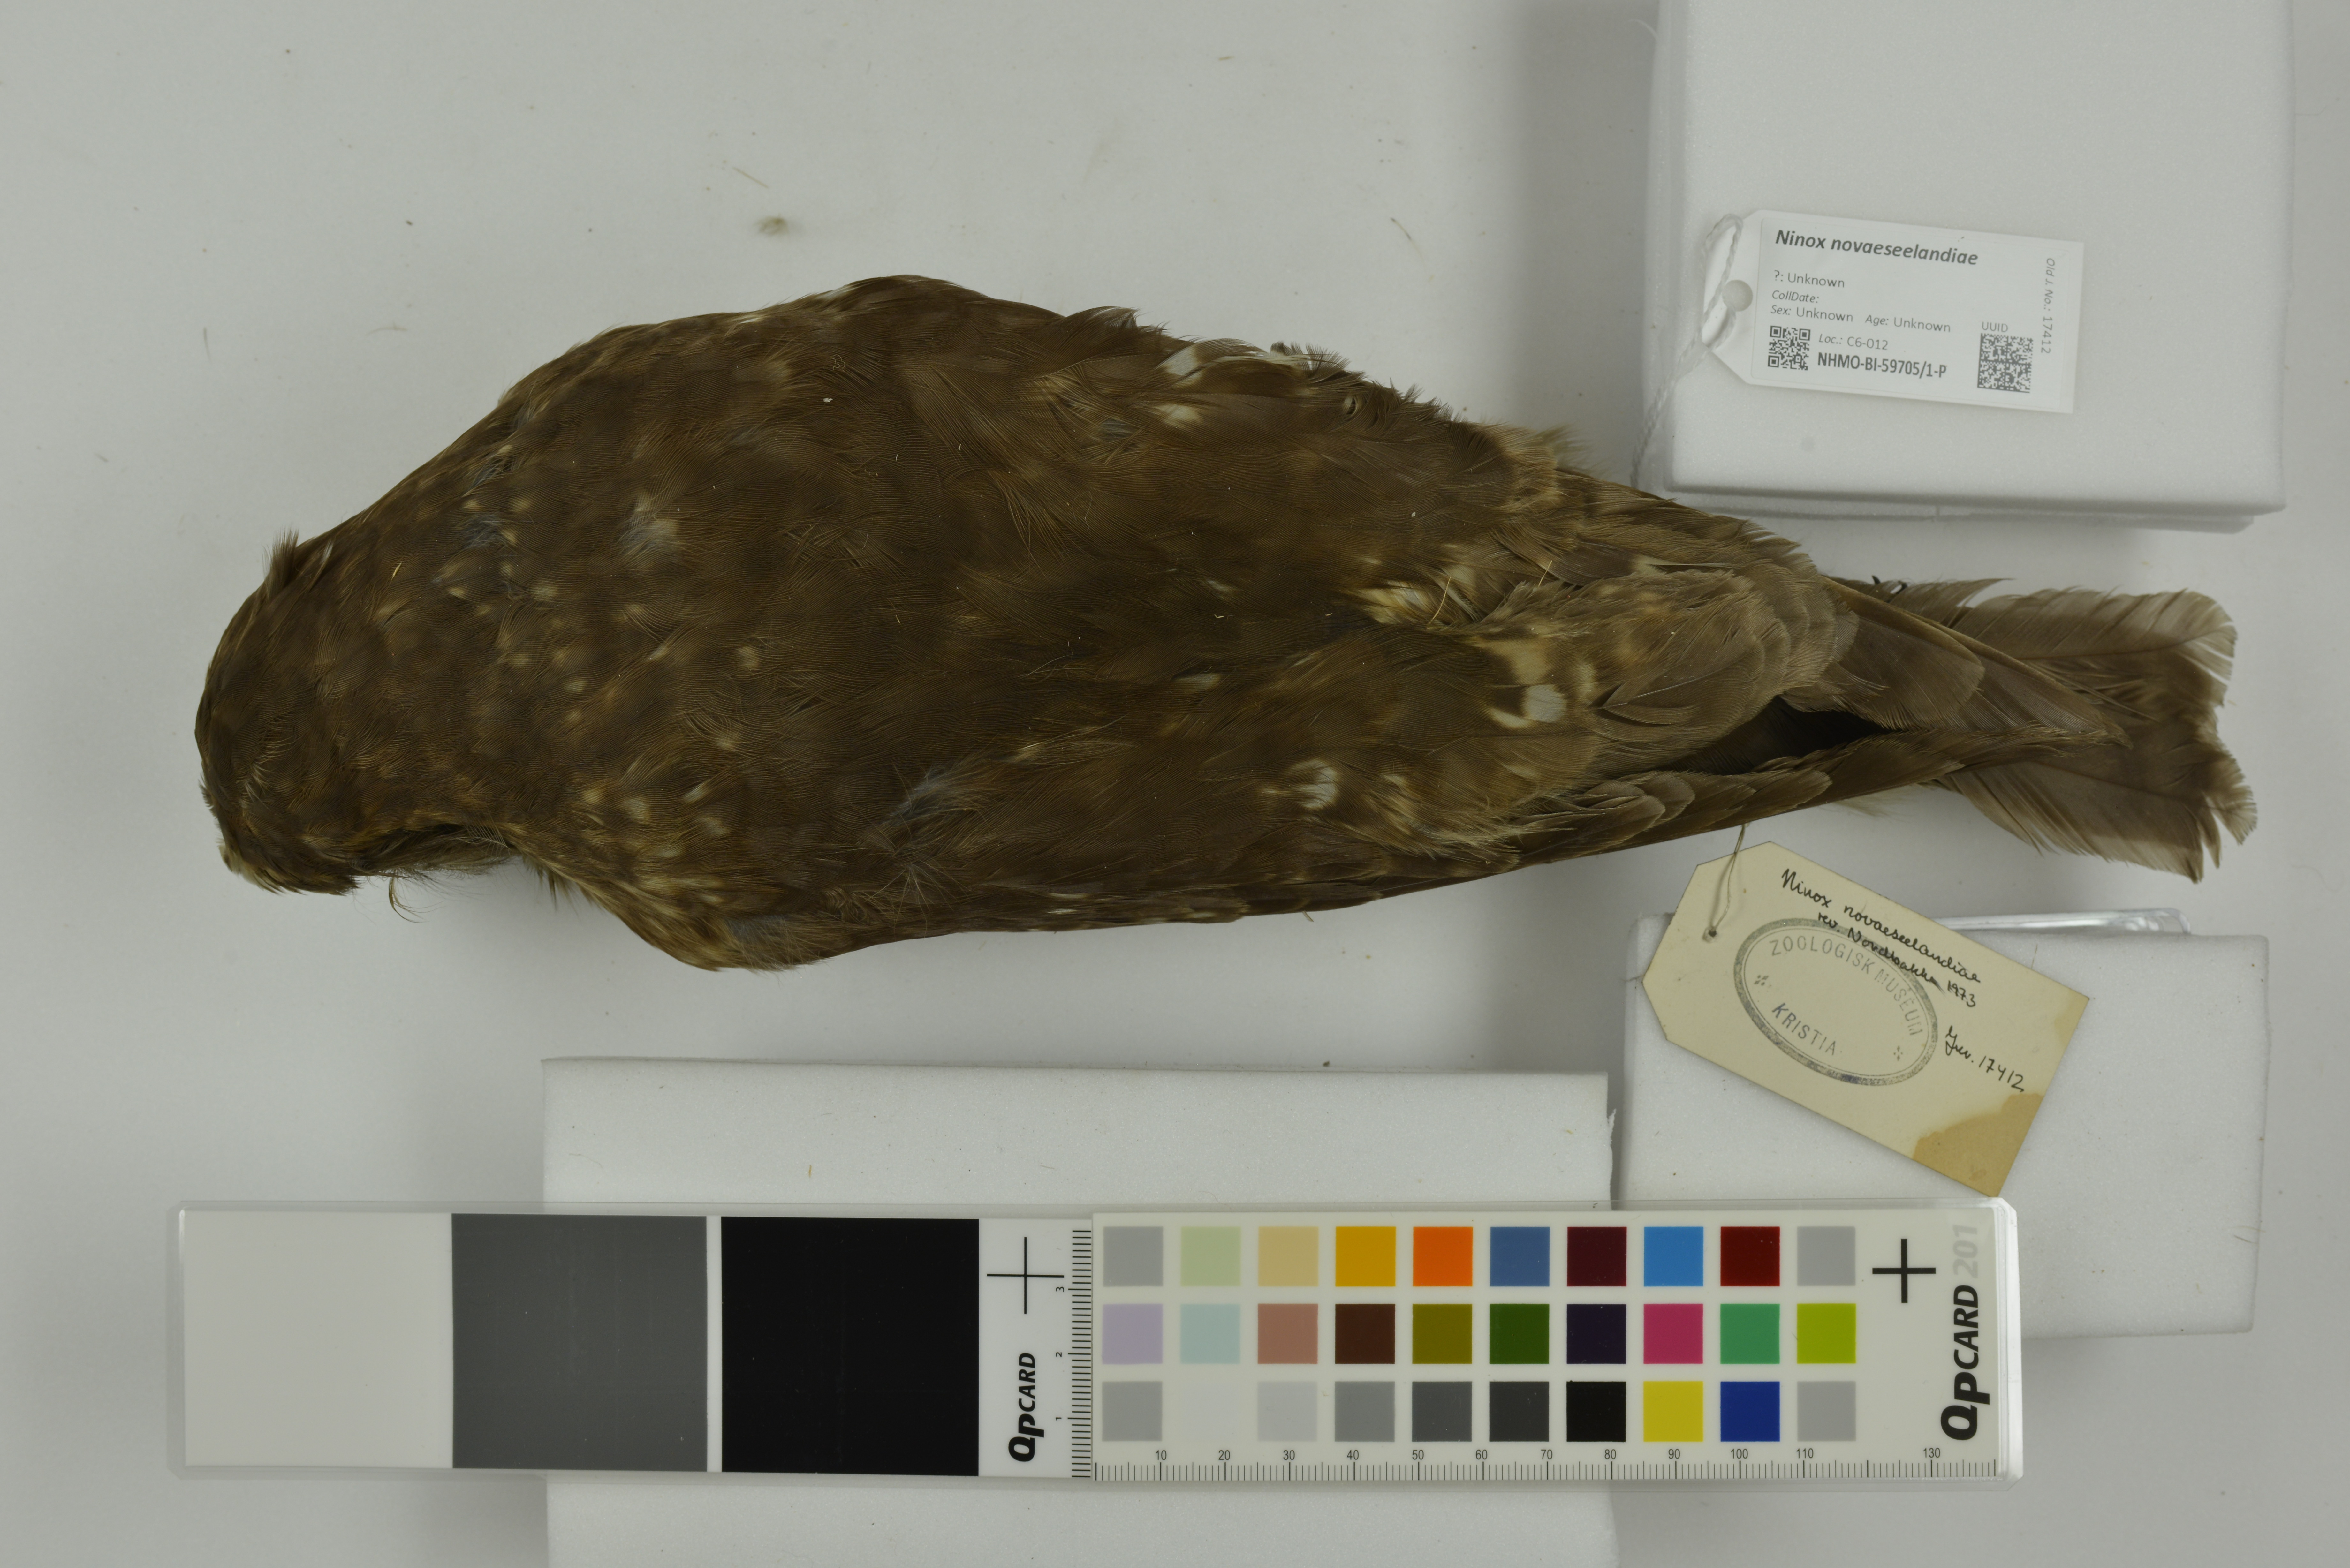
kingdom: Animalia
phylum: Chordata
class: Aves
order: Strigiformes
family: Strigidae
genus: Ninox
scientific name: Ninox novaeseelandiae
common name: Morepork
